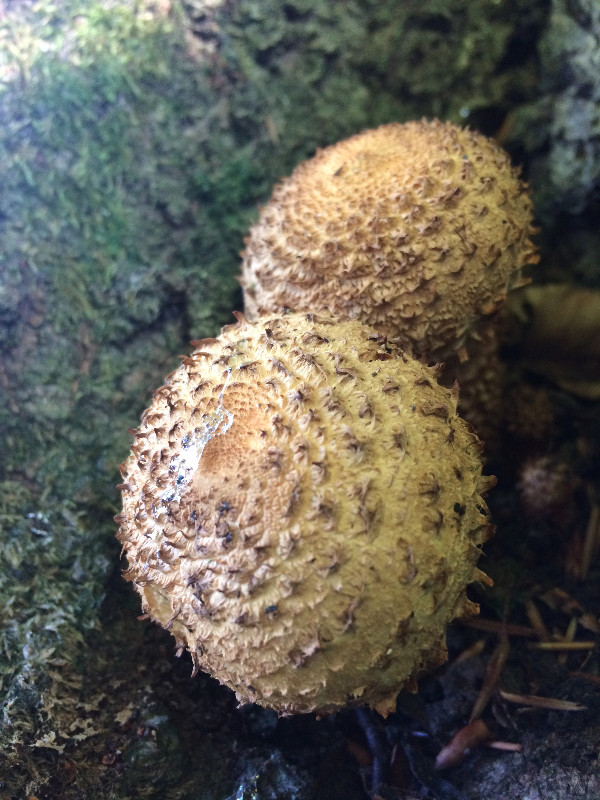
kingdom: Fungi
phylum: Basidiomycota
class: Agaricomycetes
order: Agaricales
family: Strophariaceae
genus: Pholiota
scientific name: Pholiota squarrosa
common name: krumskællet skælhat
